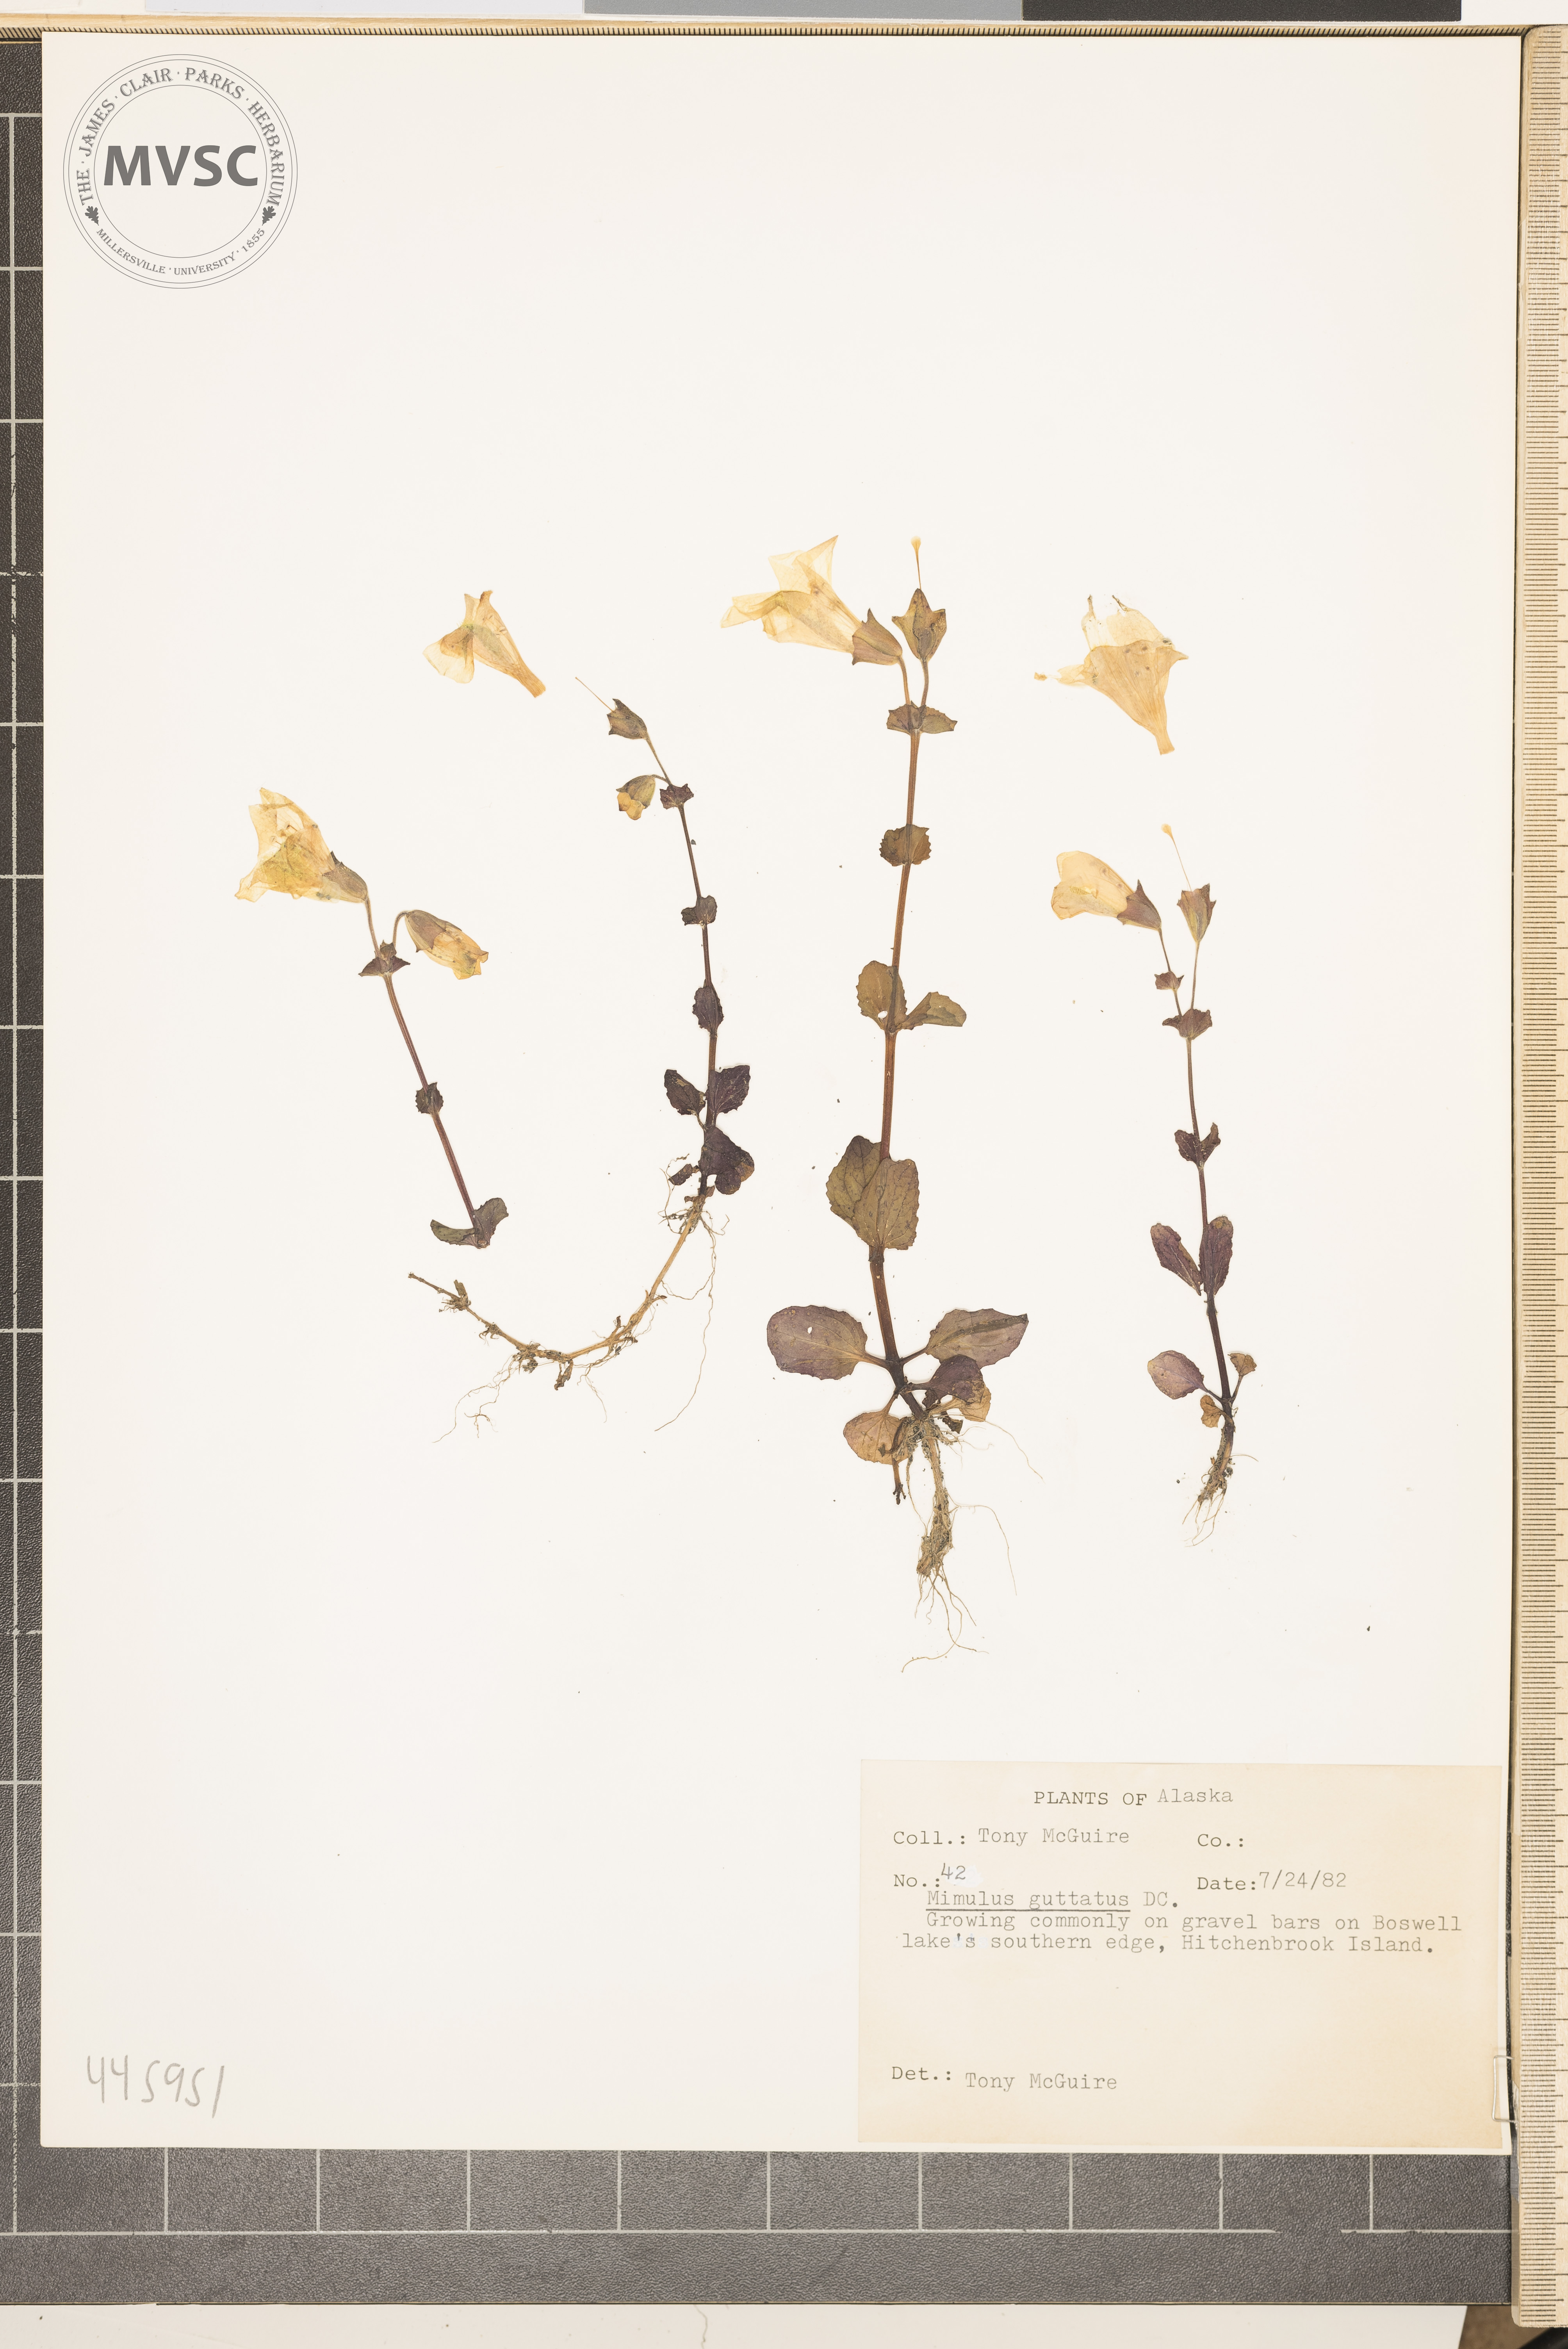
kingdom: Plantae
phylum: Tracheophyta
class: Magnoliopsida
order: Lamiales
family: Phrymaceae
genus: Erythranthe
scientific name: Erythranthe guttata
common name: Monkeyflower
